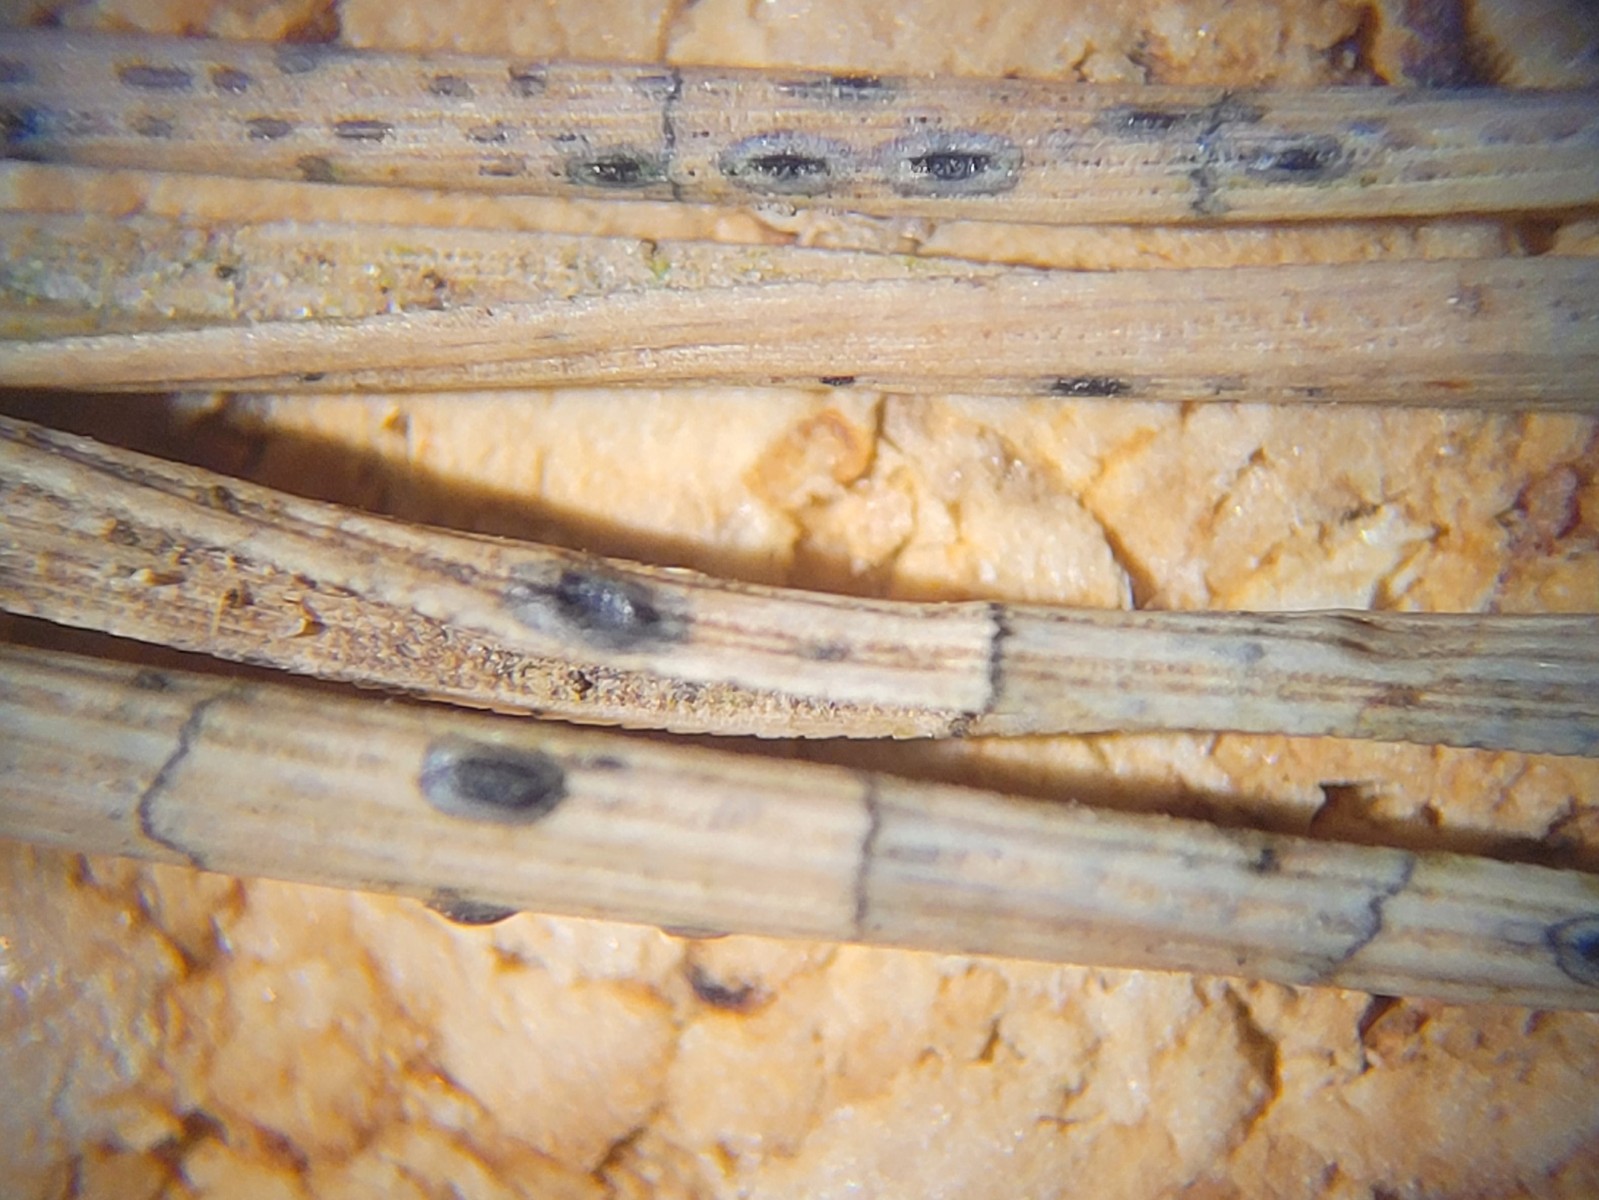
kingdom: Fungi
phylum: Ascomycota
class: Leotiomycetes
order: Rhytismatales
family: Rhytismataceae
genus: Lophodermium
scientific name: Lophodermium pinastri
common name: fyrre-fureplet
